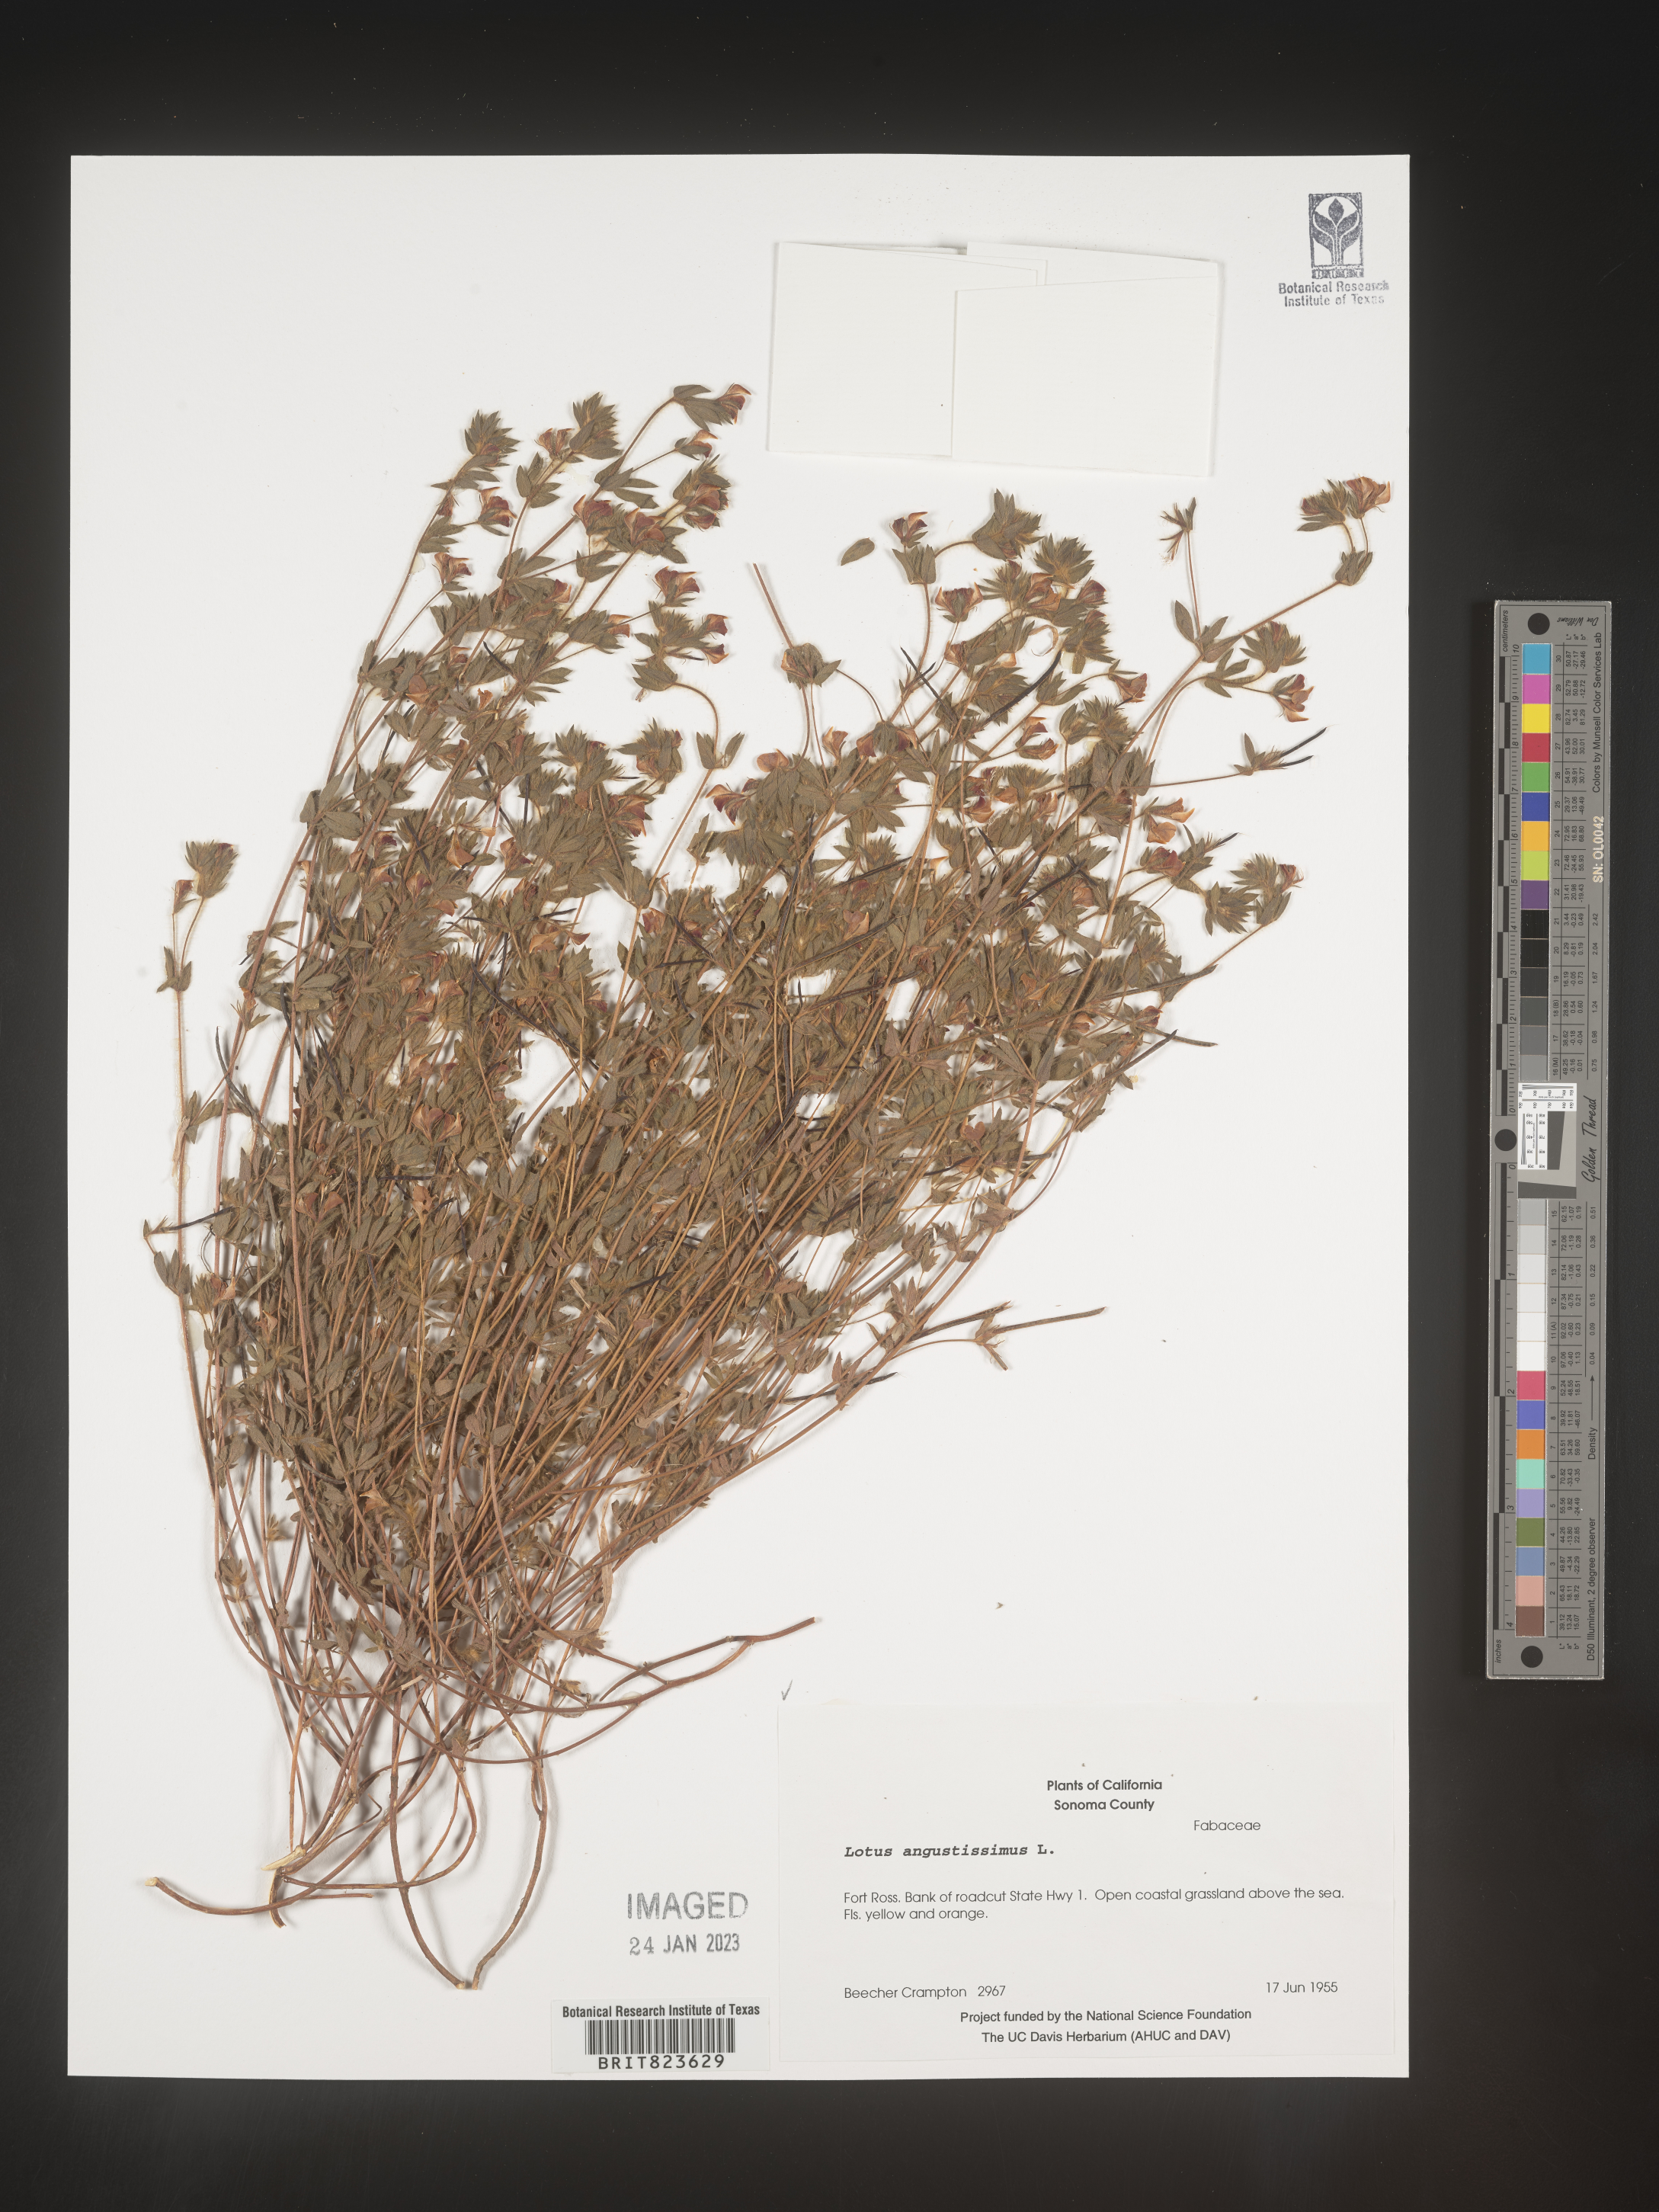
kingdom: Plantae
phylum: Tracheophyta
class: Magnoliopsida
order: Fabales
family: Fabaceae
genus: Lotus
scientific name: Lotus
